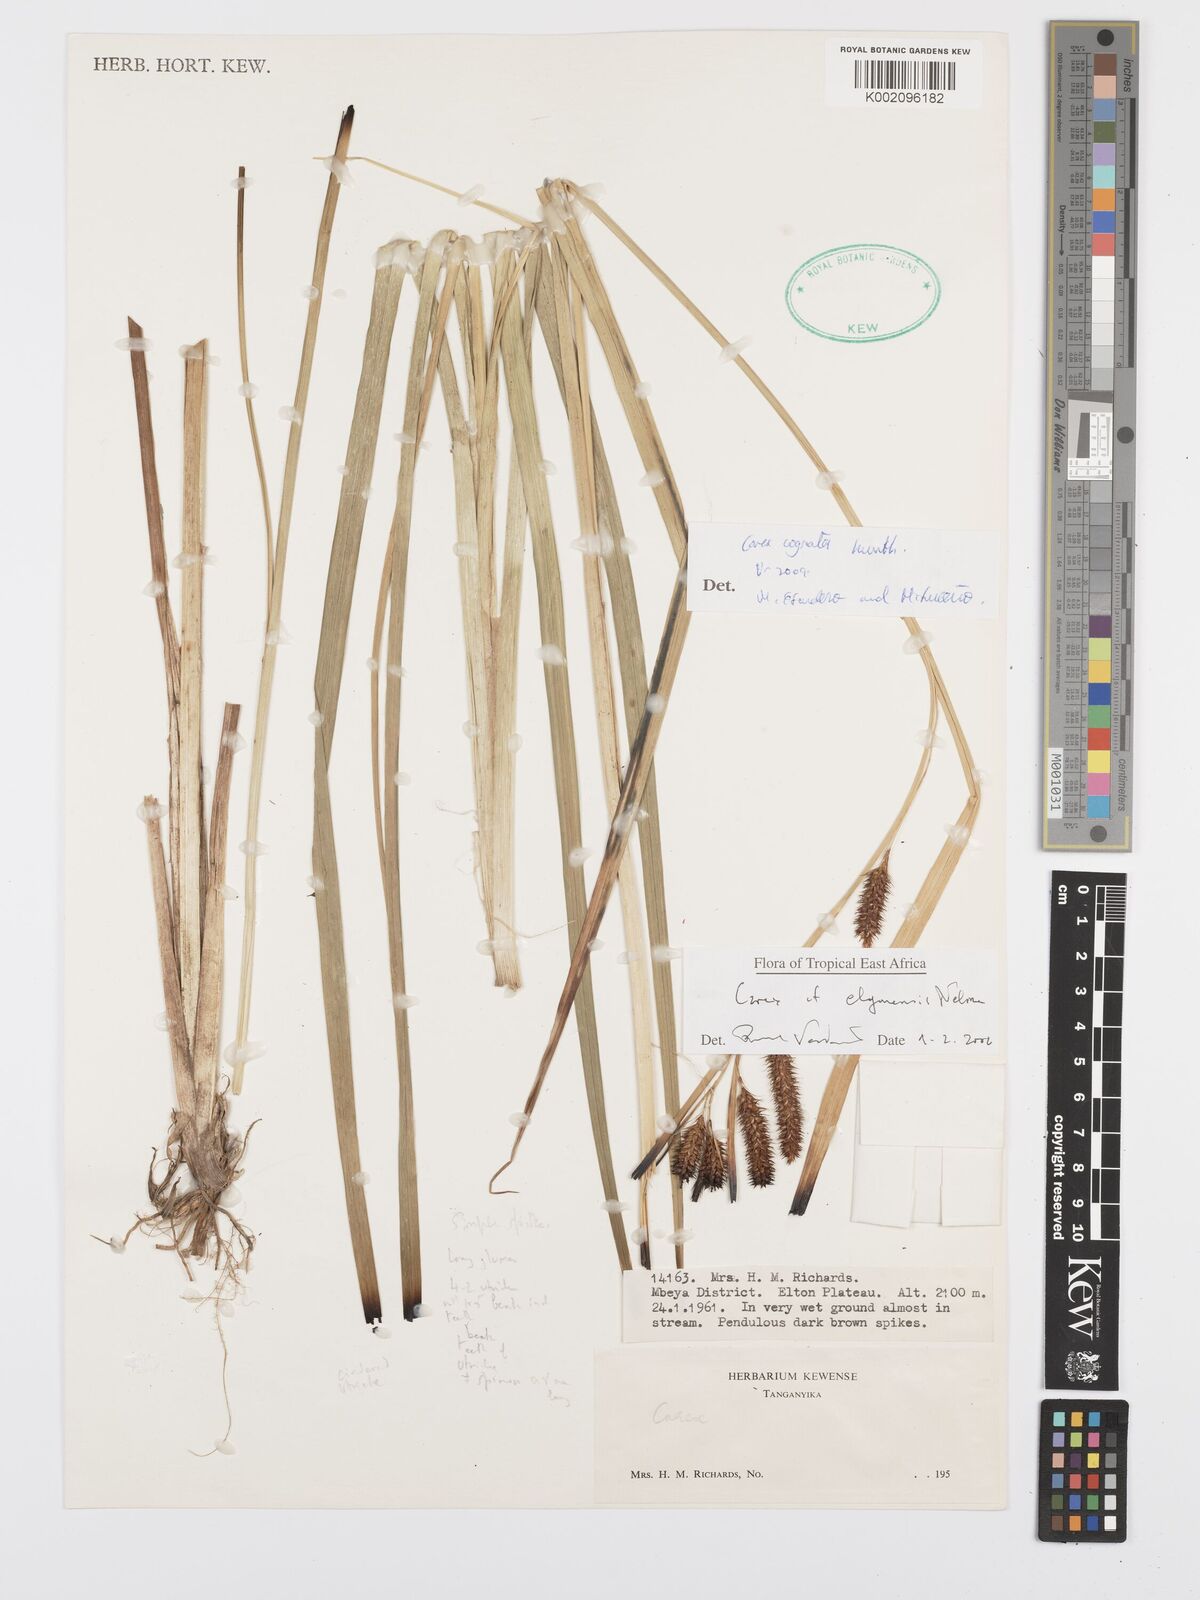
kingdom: Plantae
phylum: Tracheophyta
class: Liliopsida
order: Poales
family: Cyperaceae
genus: Carex
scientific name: Carex congolensis
